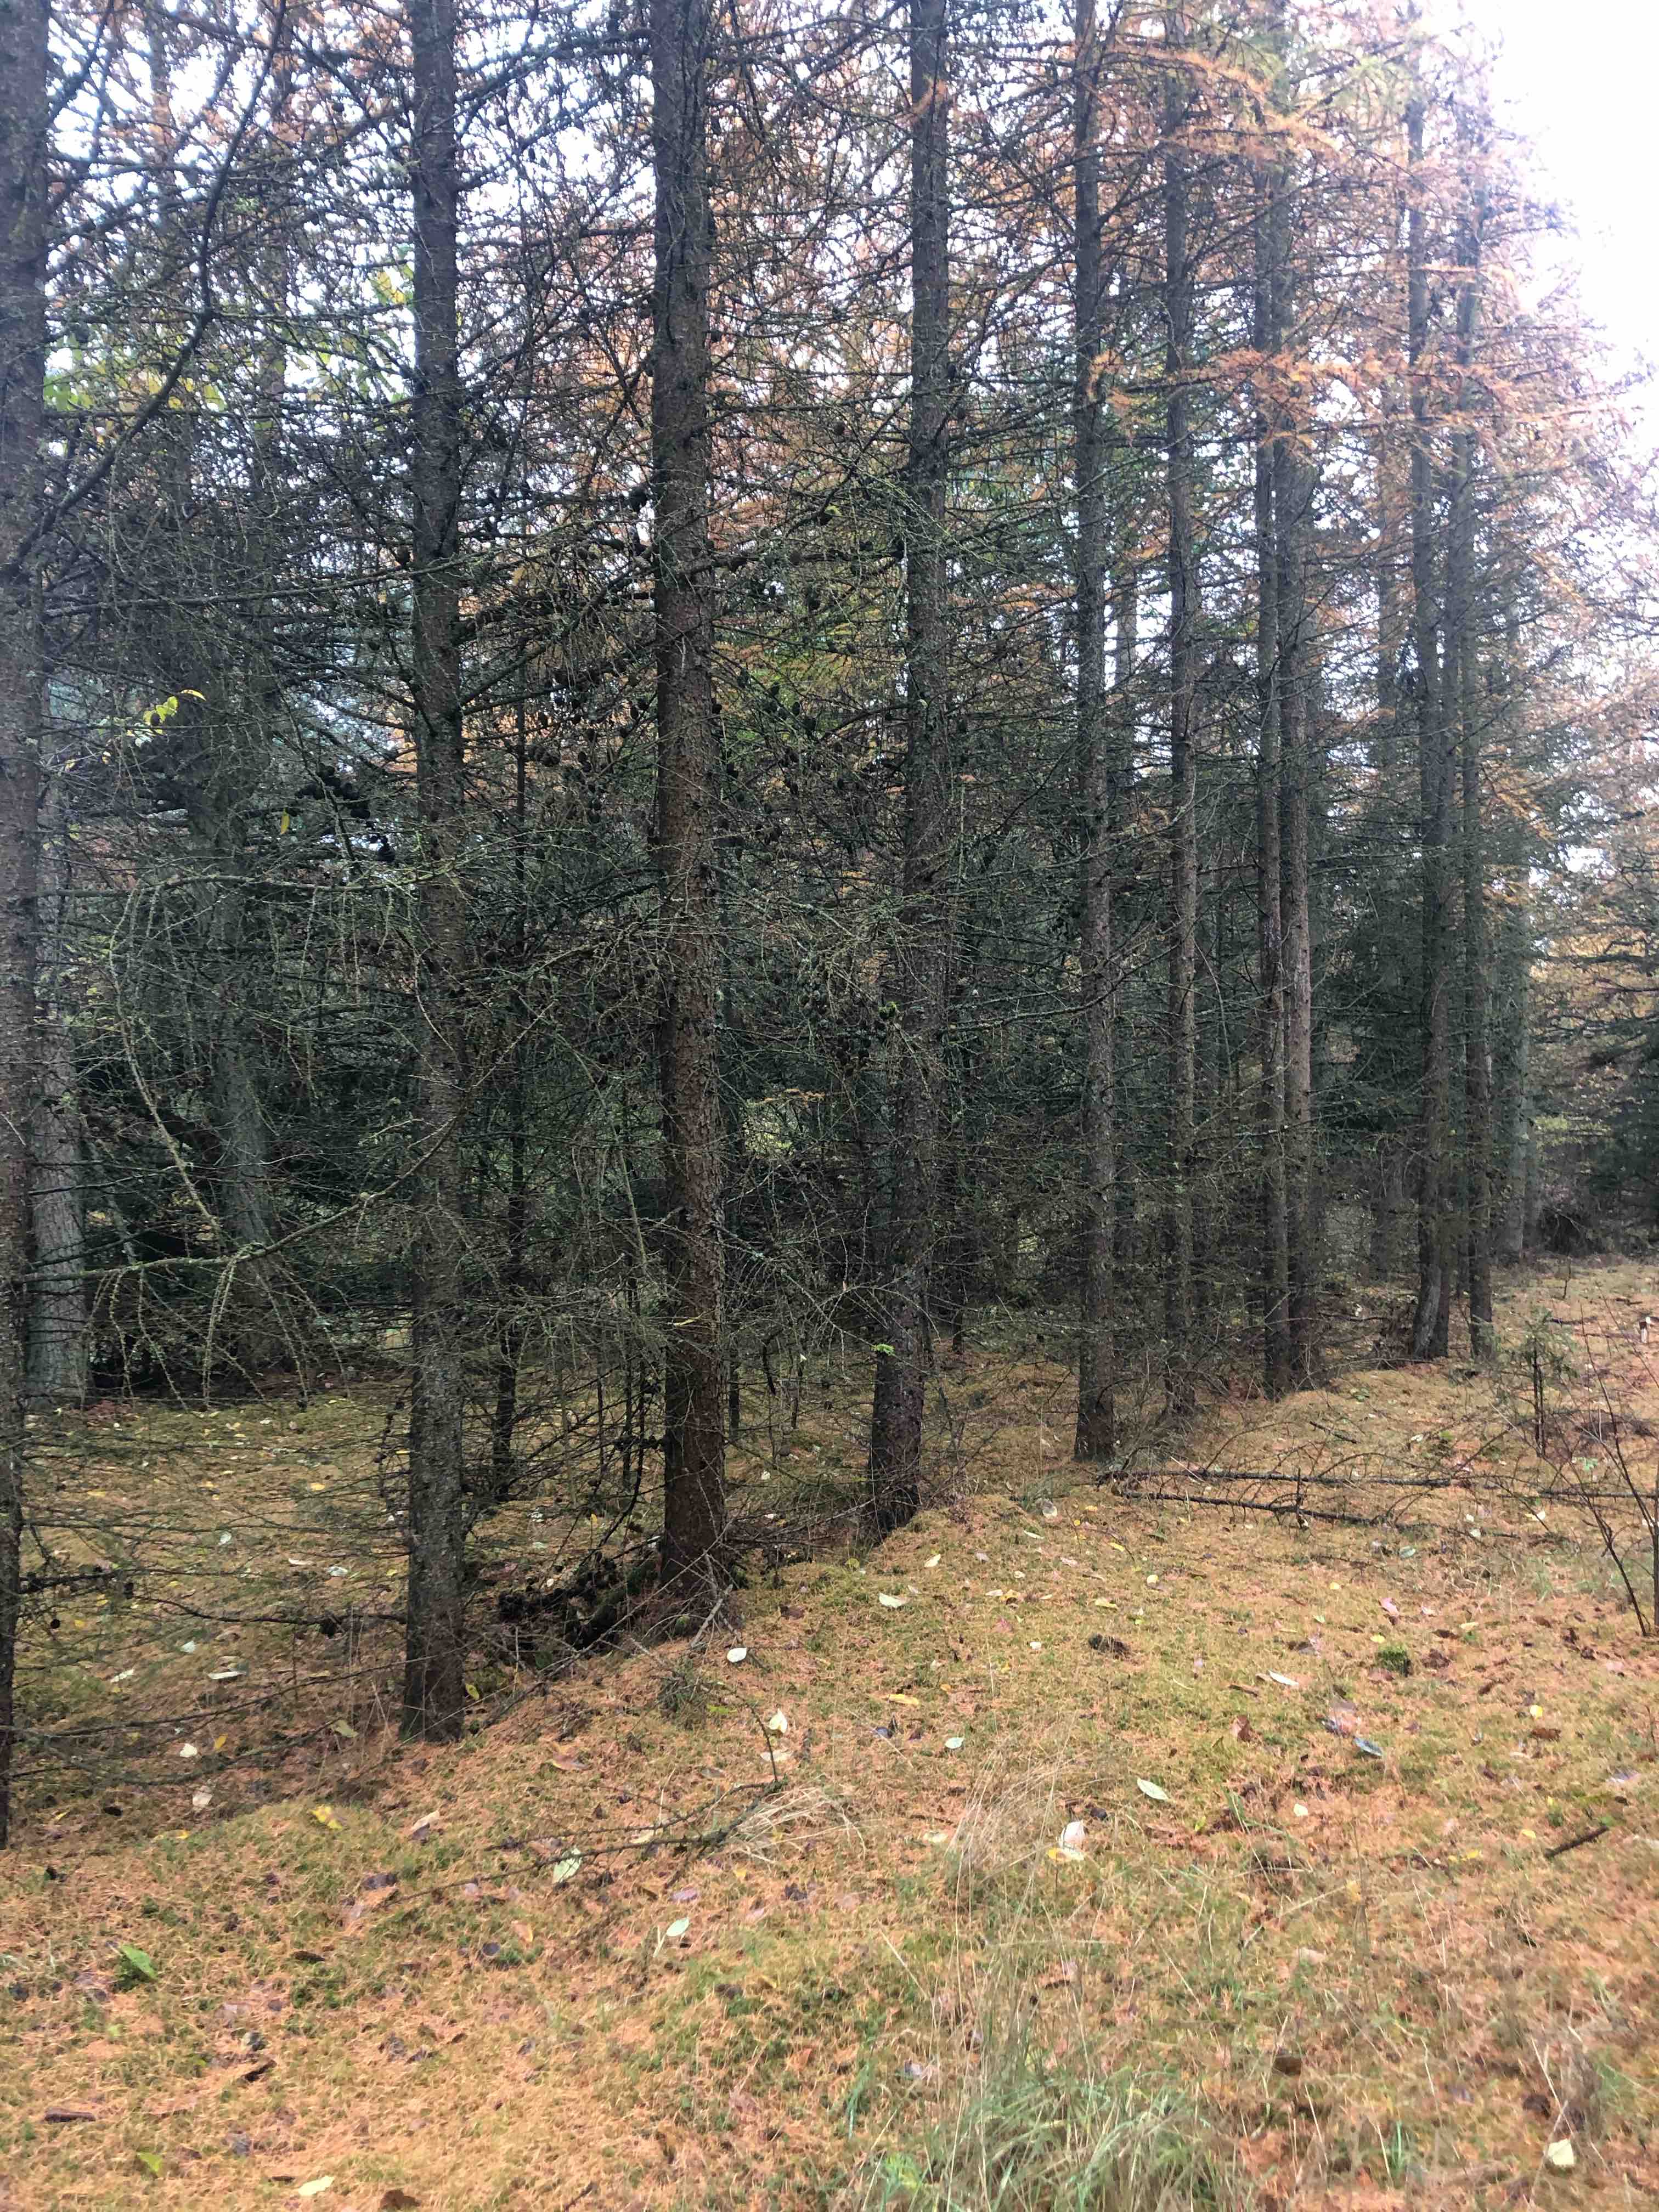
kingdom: Fungi
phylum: Basidiomycota
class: Agaricomycetes
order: Agaricales
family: Hymenogastraceae
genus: Galerina
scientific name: Galerina
